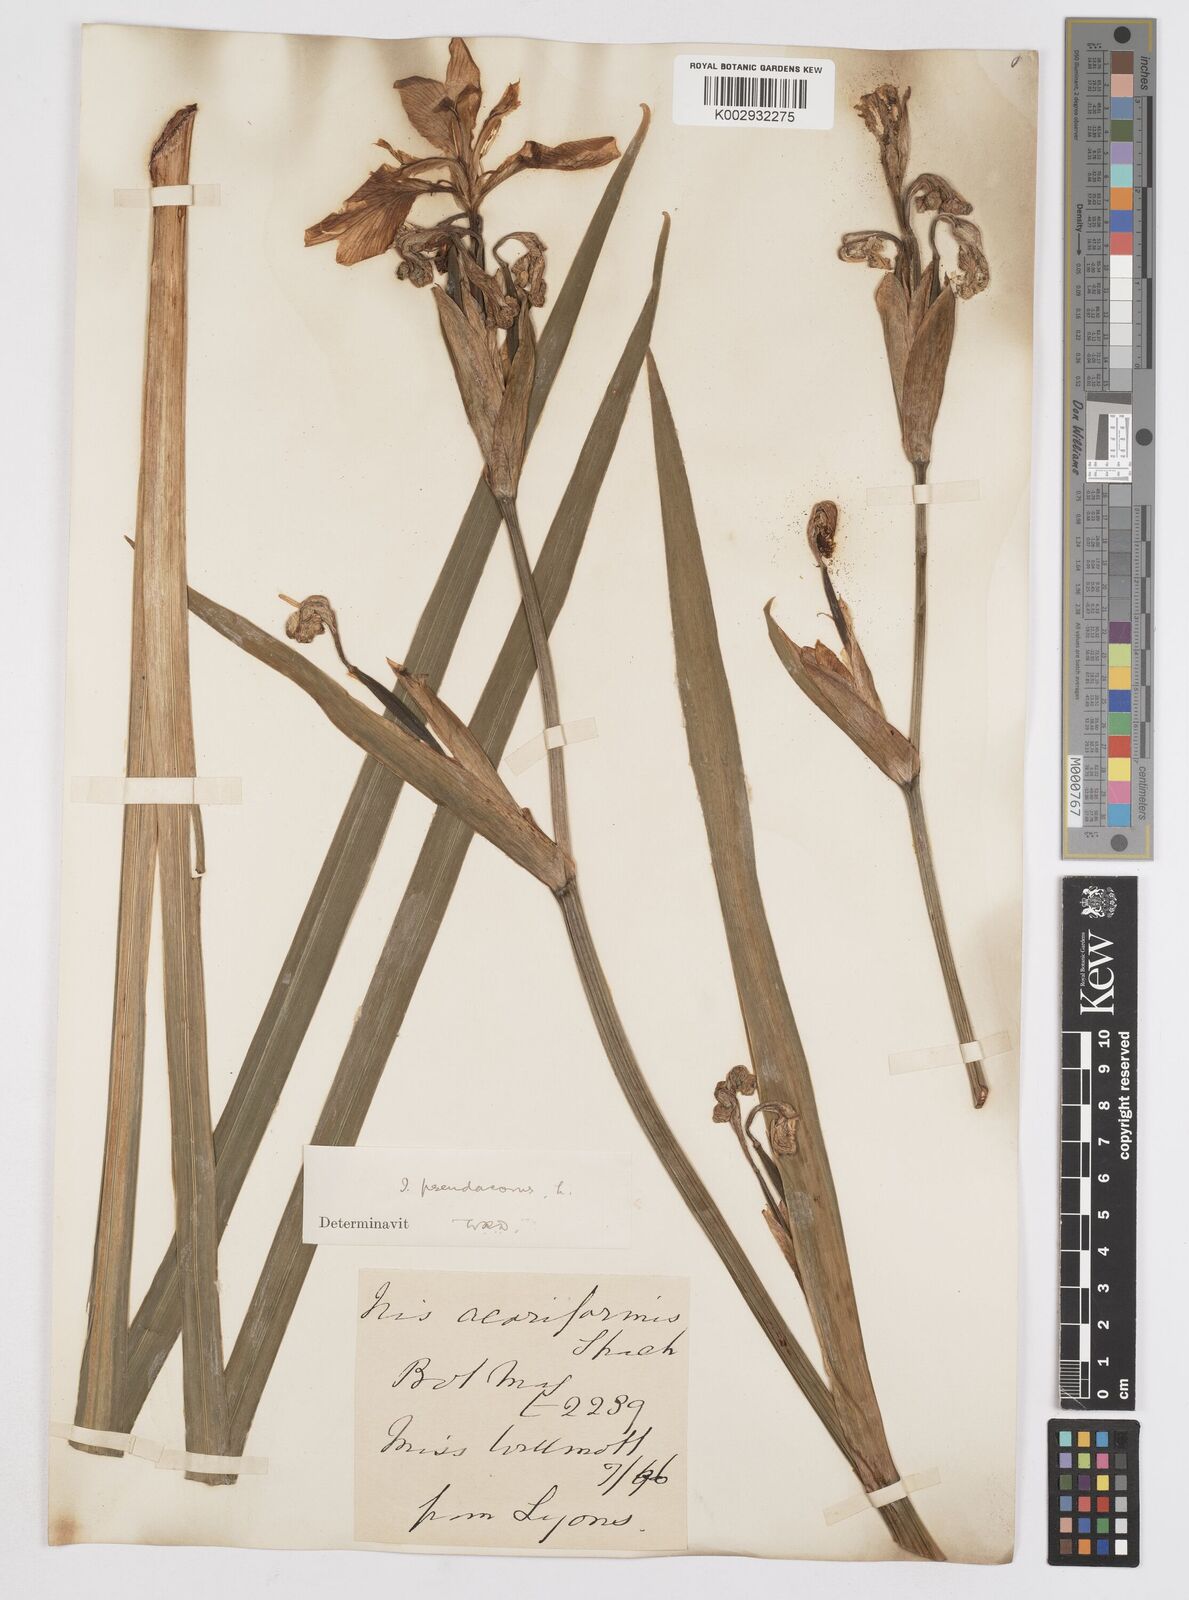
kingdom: Plantae
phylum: Tracheophyta
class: Liliopsida
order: Asparagales
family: Iridaceae
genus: Iris
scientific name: Iris pseudacorus
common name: Yellow flag
